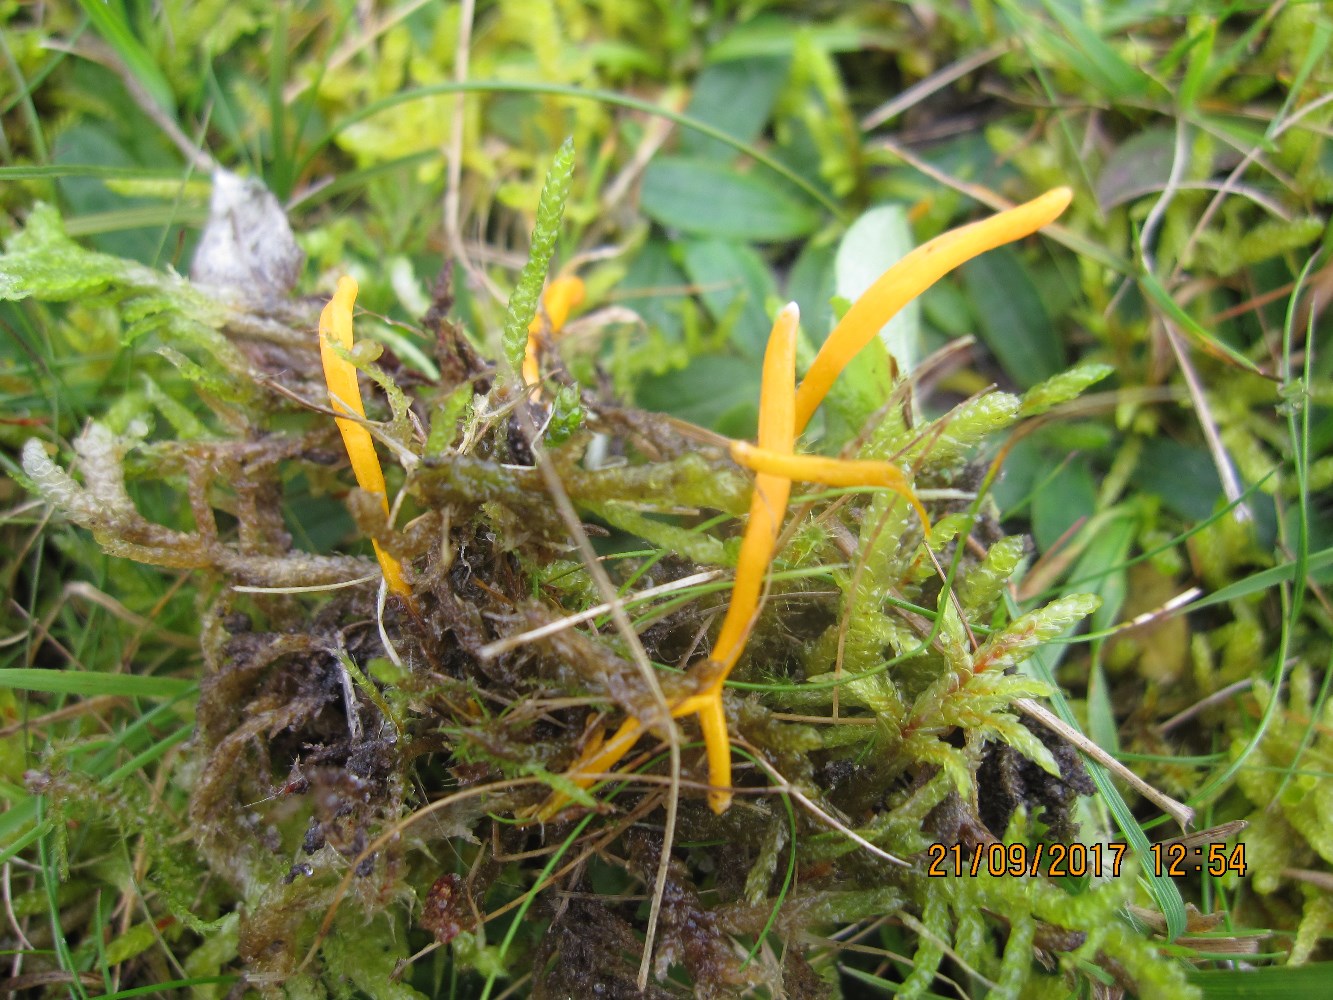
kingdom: Fungi
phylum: Basidiomycota
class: Agaricomycetes
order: Agaricales
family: Clavariaceae
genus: Clavulinopsis
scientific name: Clavulinopsis luteoalba
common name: abrikos-køllesvamp
